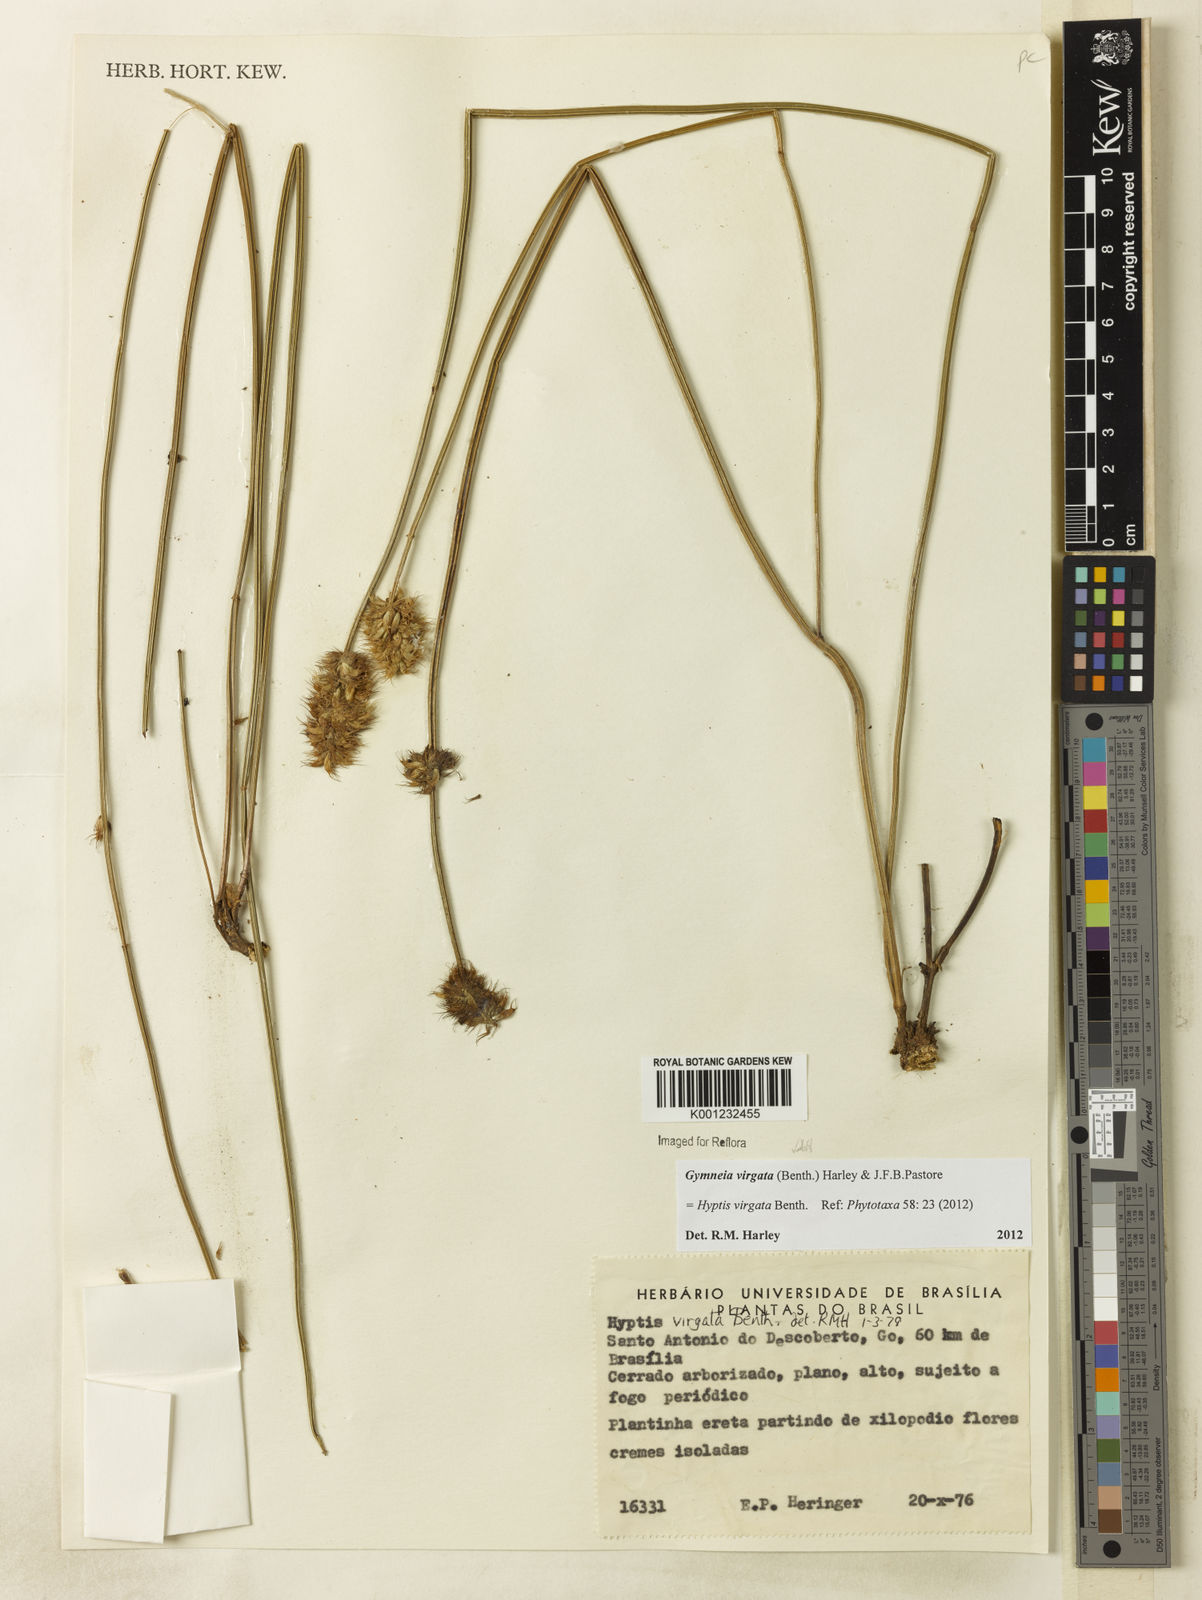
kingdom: Plantae
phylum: Tracheophyta
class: Magnoliopsida
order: Lamiales
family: Lamiaceae
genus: Gymneia
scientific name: Gymneia virgata
